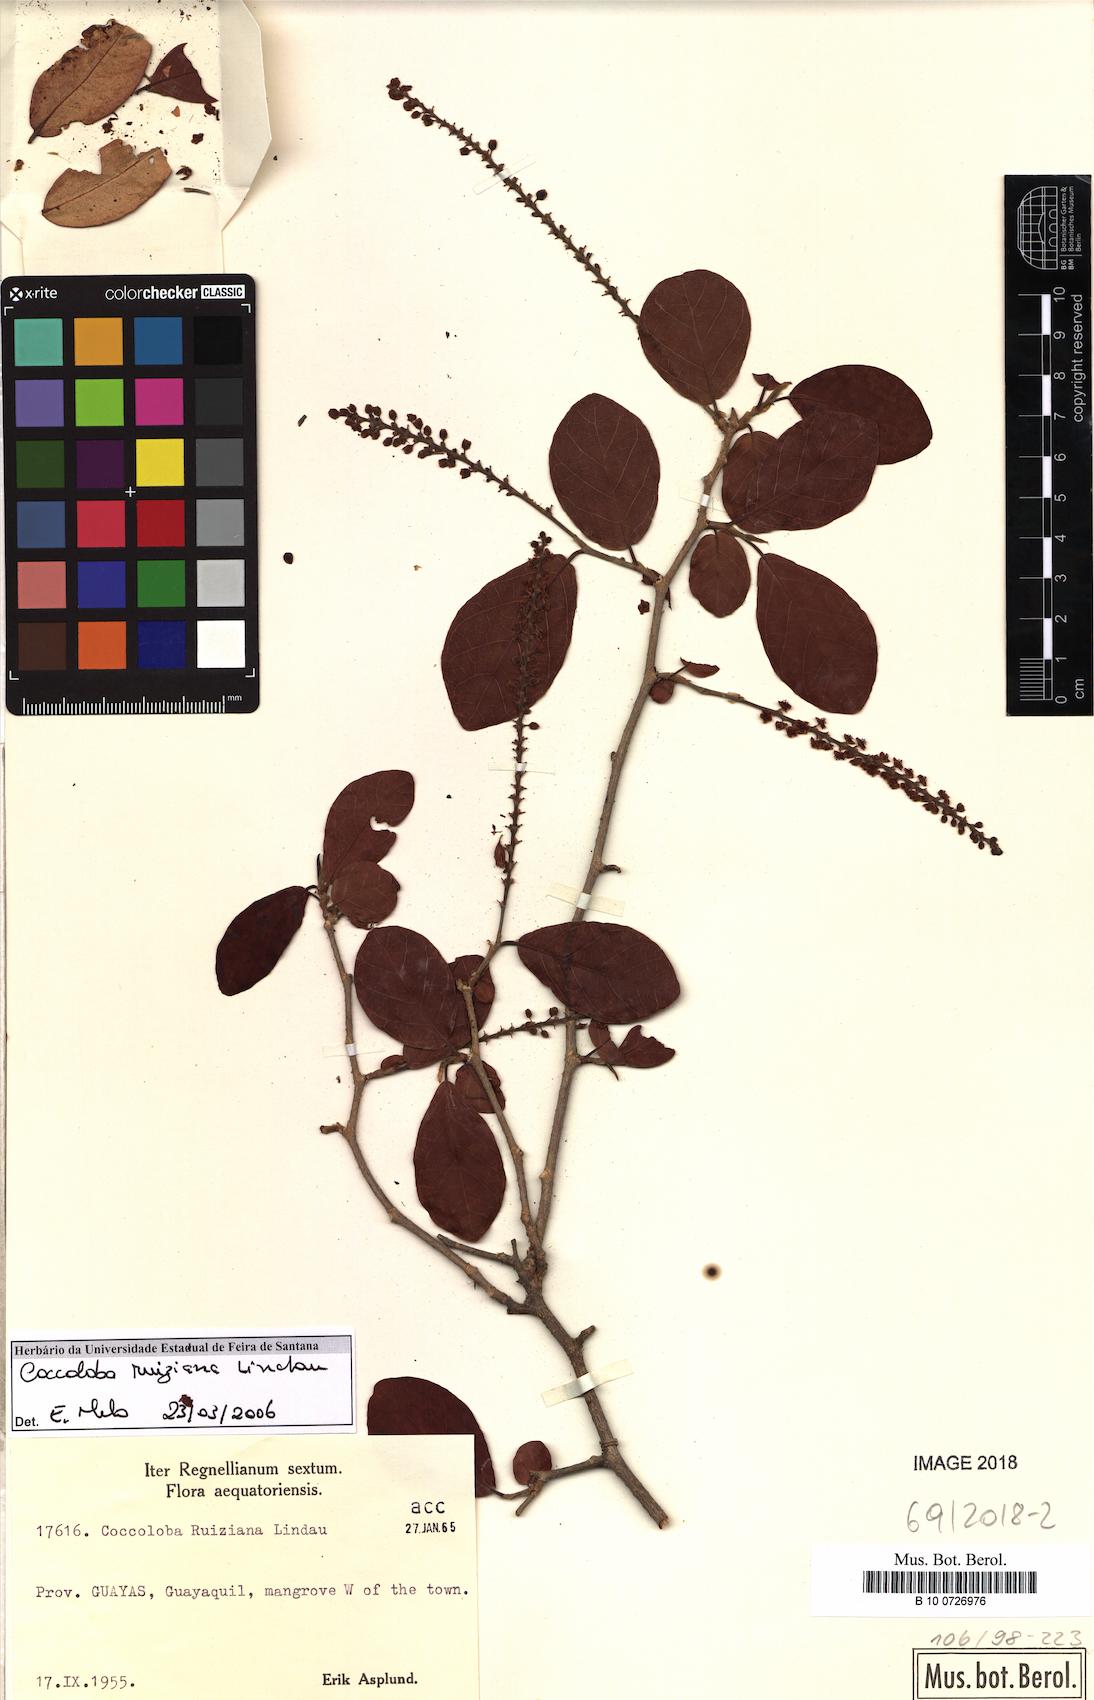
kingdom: Plantae
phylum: Tracheophyta
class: Magnoliopsida
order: Caryophyllales
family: Polygonaceae
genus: Coccoloba
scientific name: Coccoloba ruiziana
